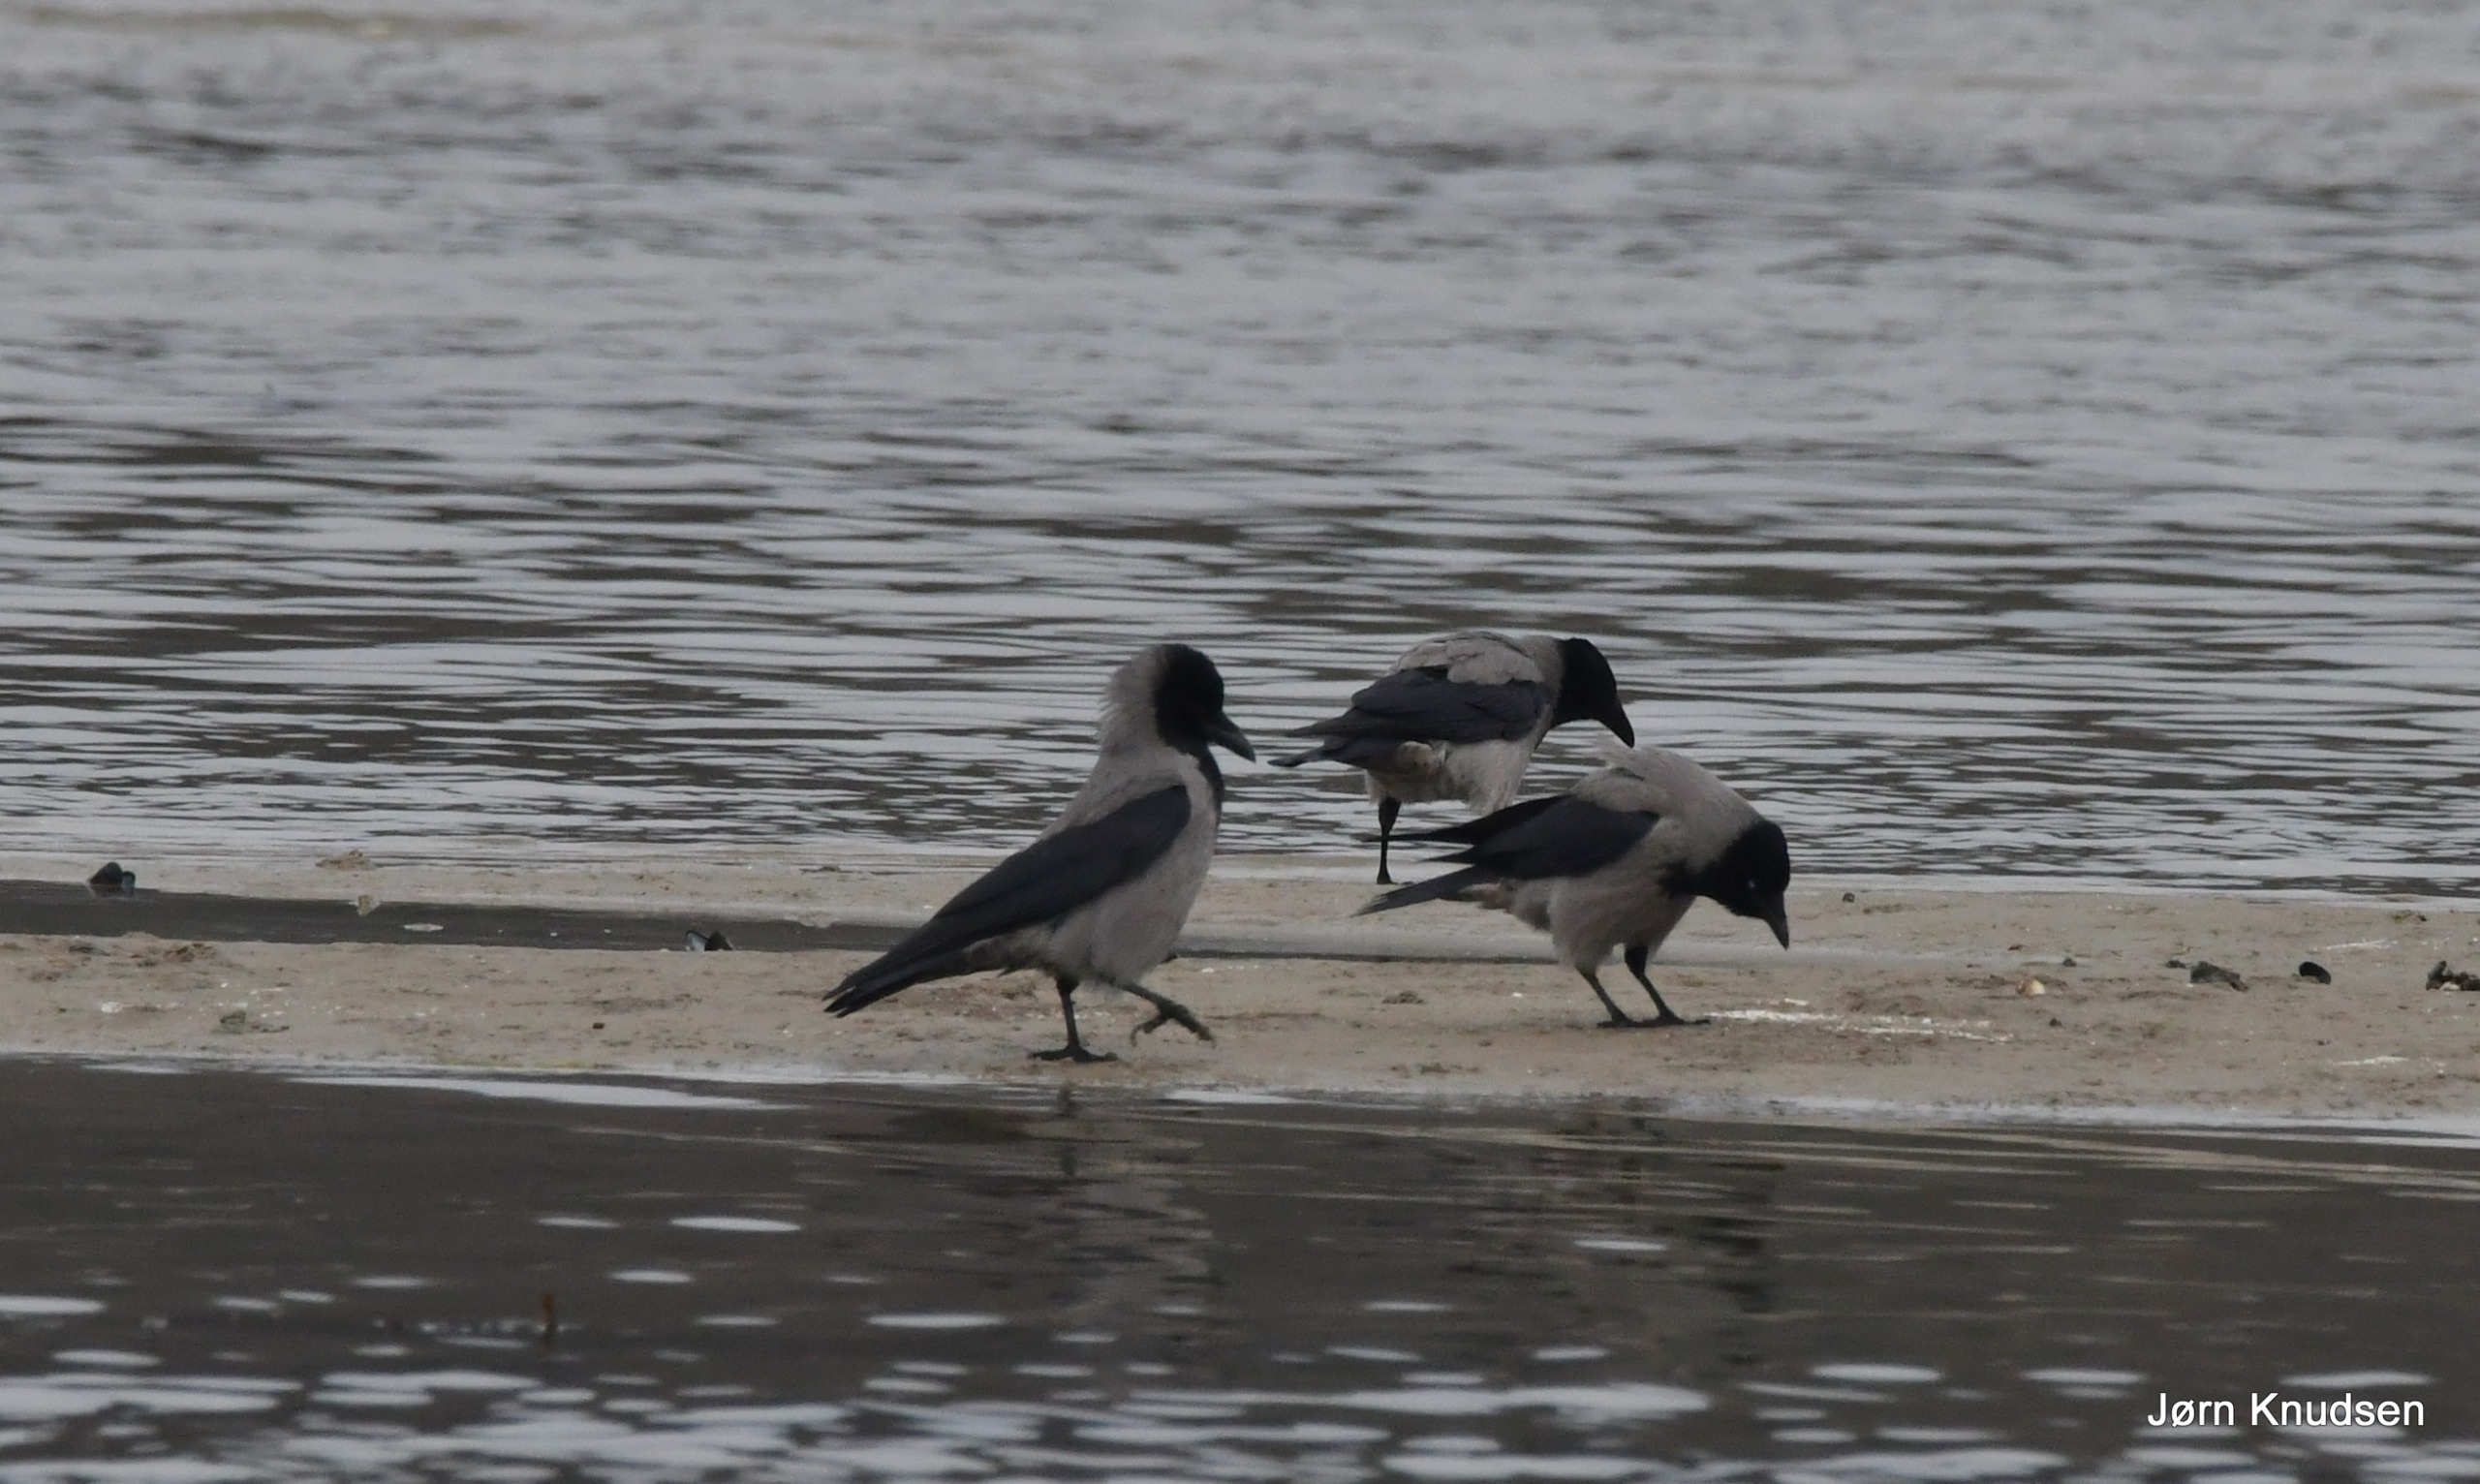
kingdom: Animalia
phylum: Chordata
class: Aves
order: Passeriformes
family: Corvidae
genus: Corvus
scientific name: Corvus cornix
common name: Gråkrage
